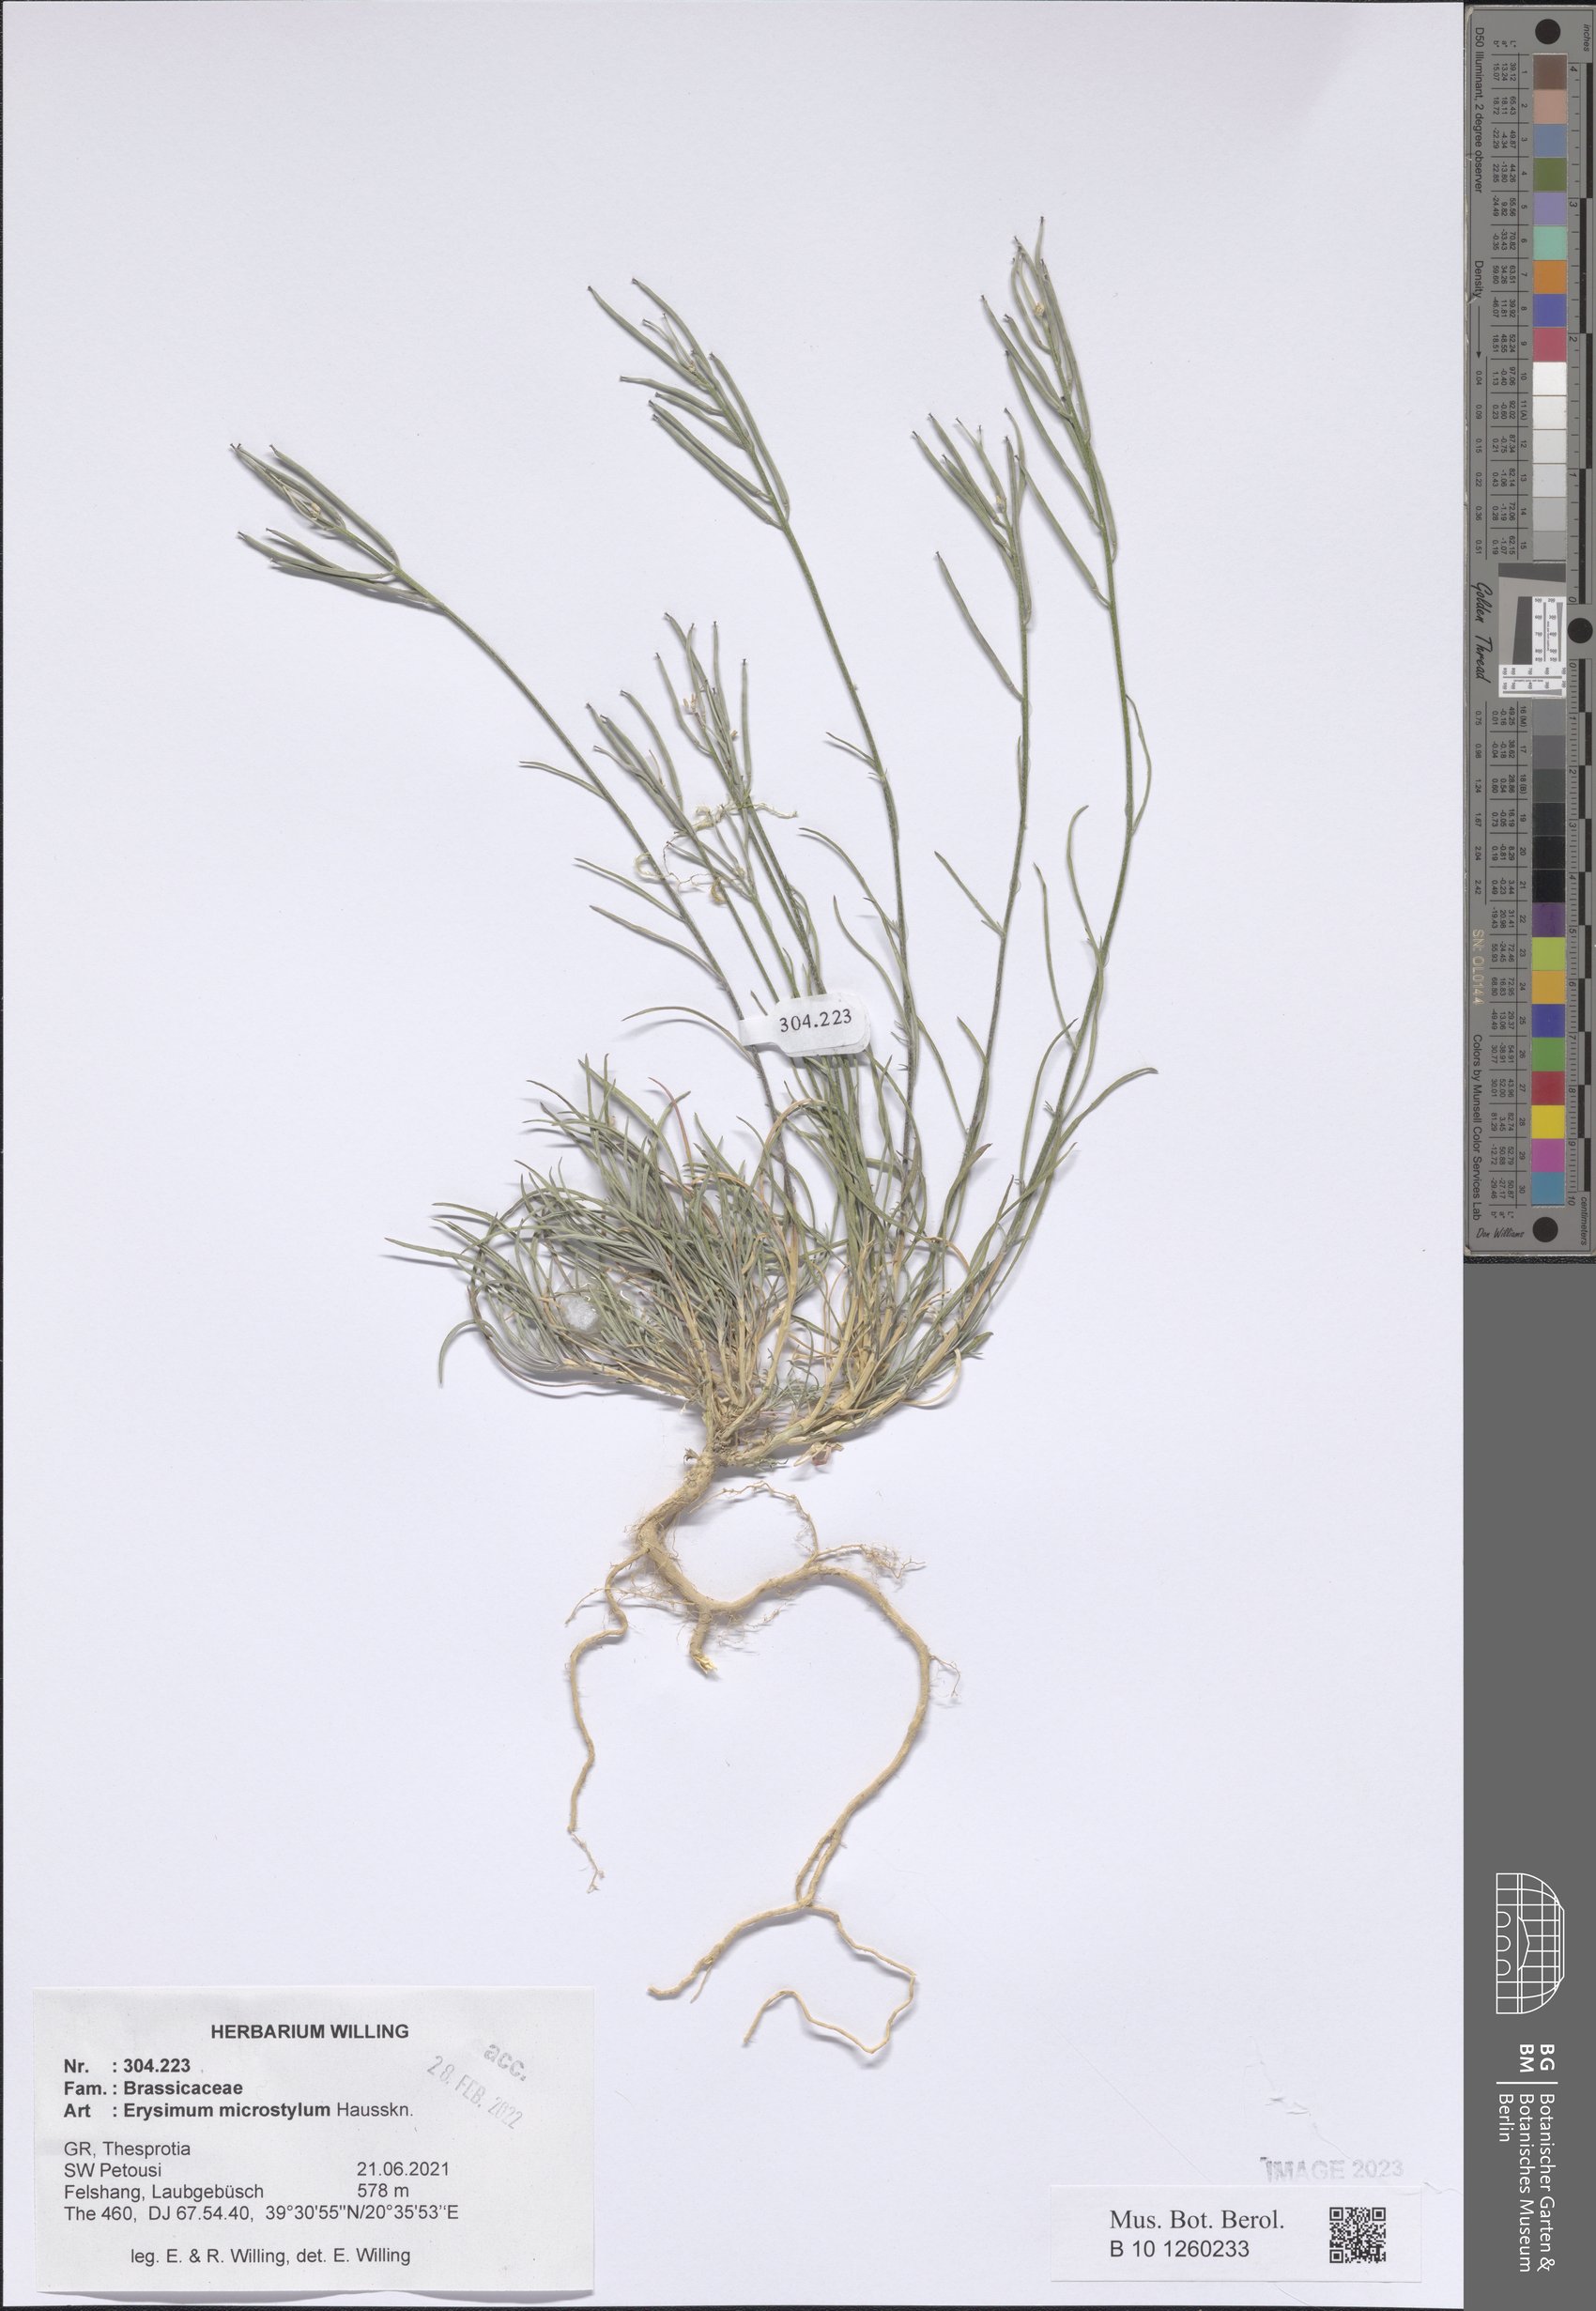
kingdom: Plantae
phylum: Tracheophyta
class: Magnoliopsida
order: Brassicales
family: Brassicaceae
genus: Erysimum
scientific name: Erysimum pusillum
